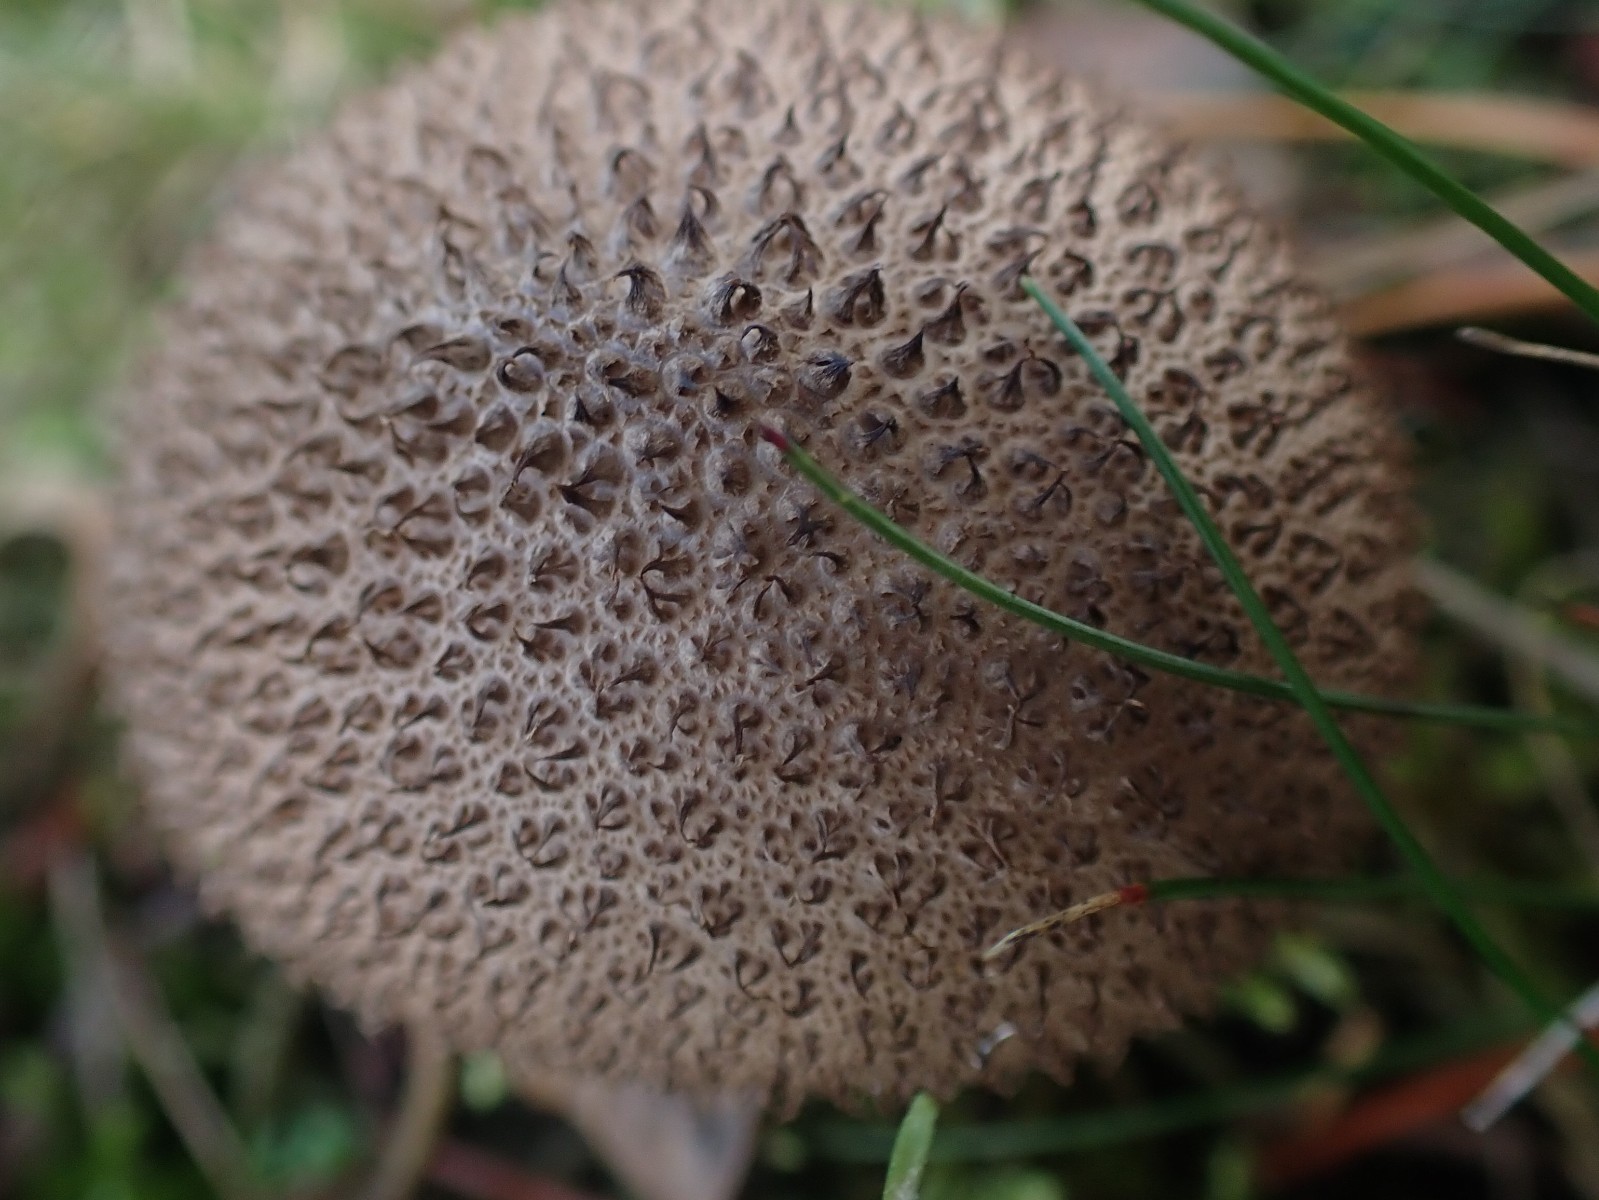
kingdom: Fungi
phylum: Basidiomycota
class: Agaricomycetes
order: Agaricales
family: Lycoperdaceae
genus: Lycoperdon
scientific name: Lycoperdon nigrescens
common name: sortagtig støvbold
